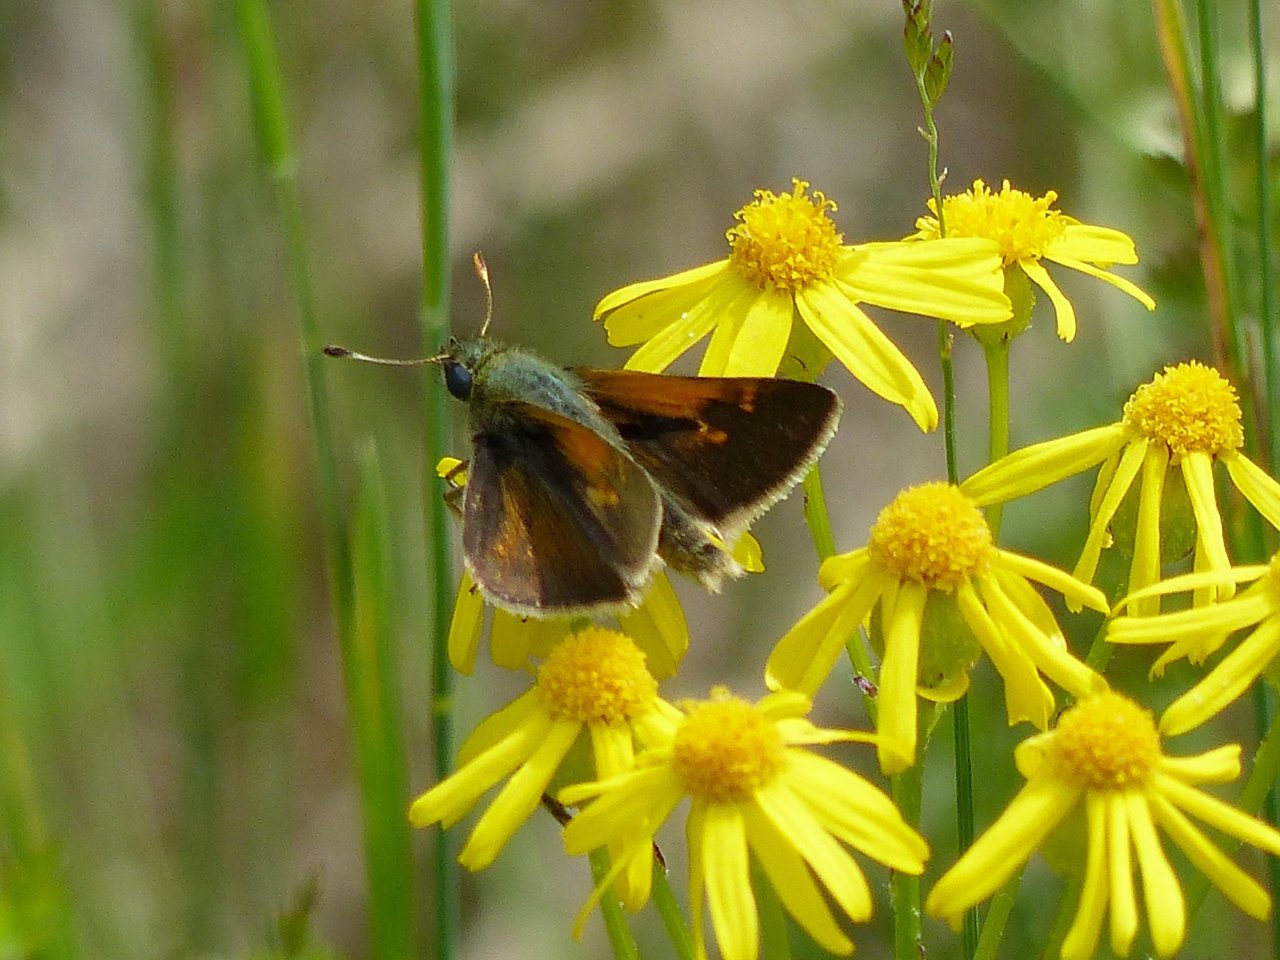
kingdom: Animalia
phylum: Arthropoda
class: Insecta
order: Lepidoptera
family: Hesperiidae
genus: Polites
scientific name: Polites themistocles
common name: Tawny-edged Skipper
